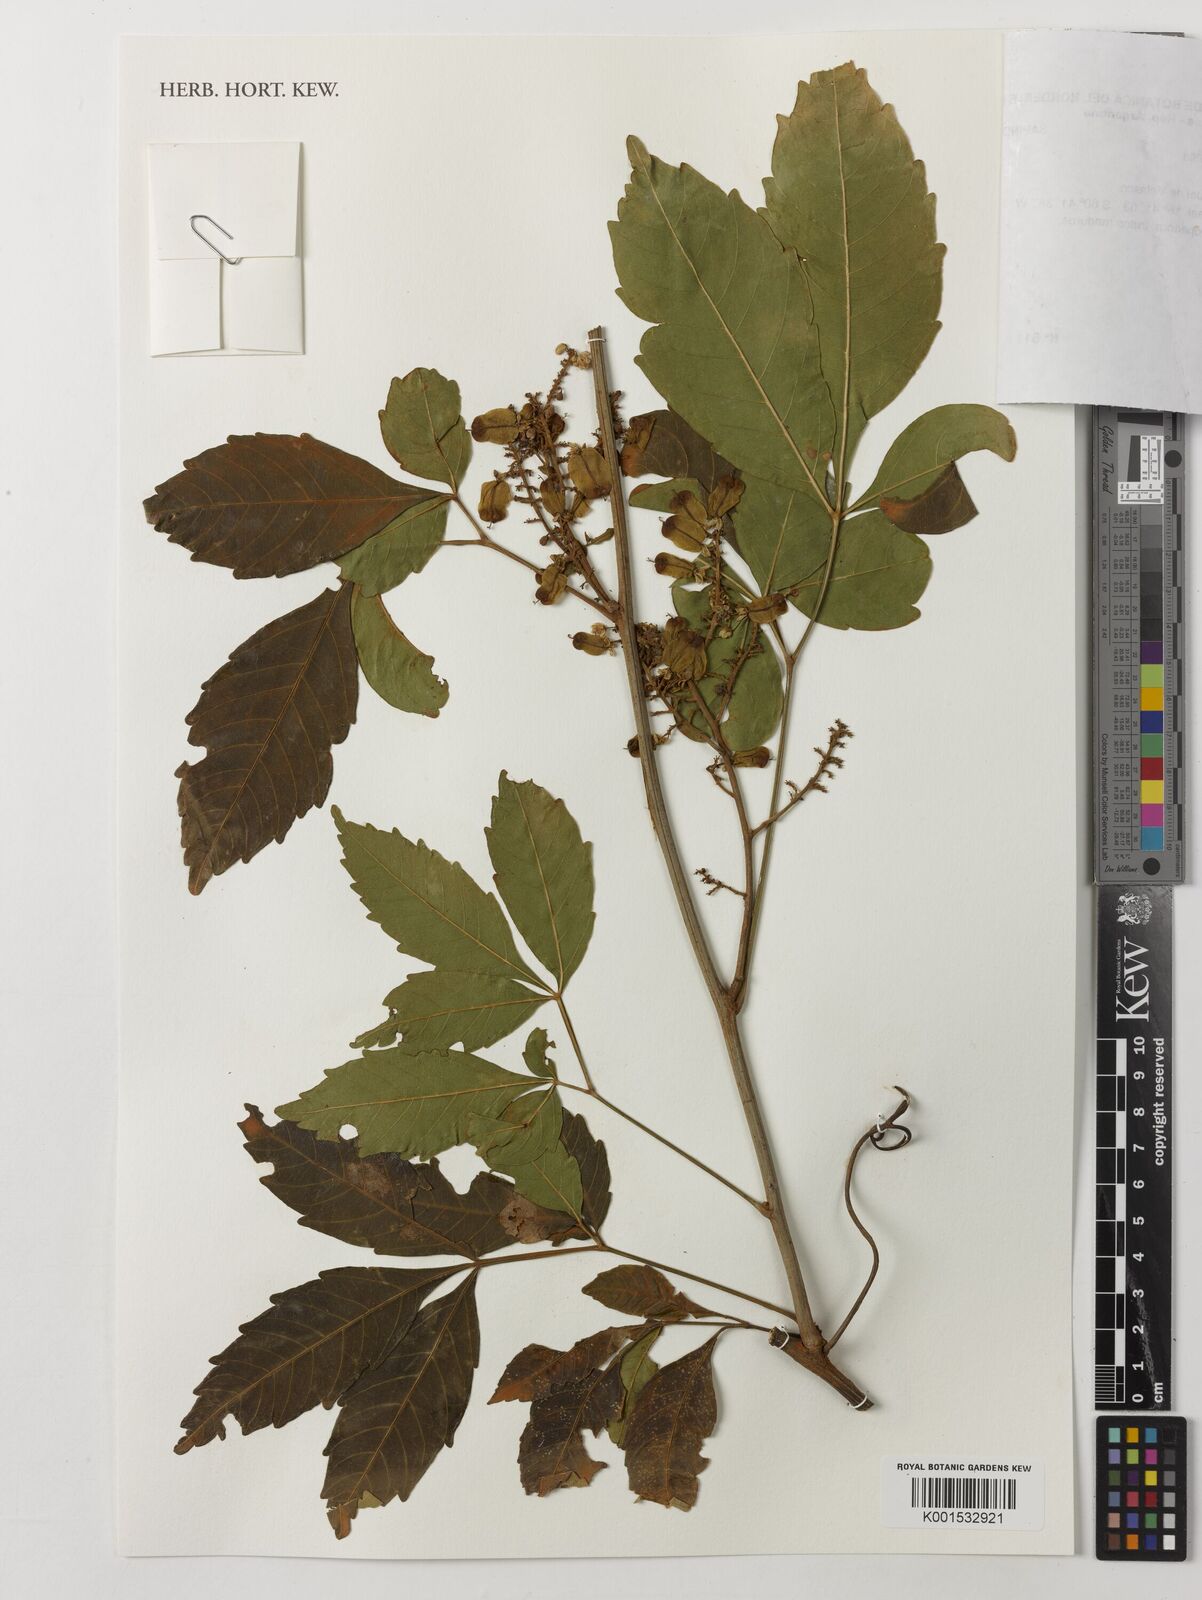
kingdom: Plantae
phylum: Tracheophyta
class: Magnoliopsida
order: Sapindales
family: Sapindaceae
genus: Serjania
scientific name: Serjania caracasana
